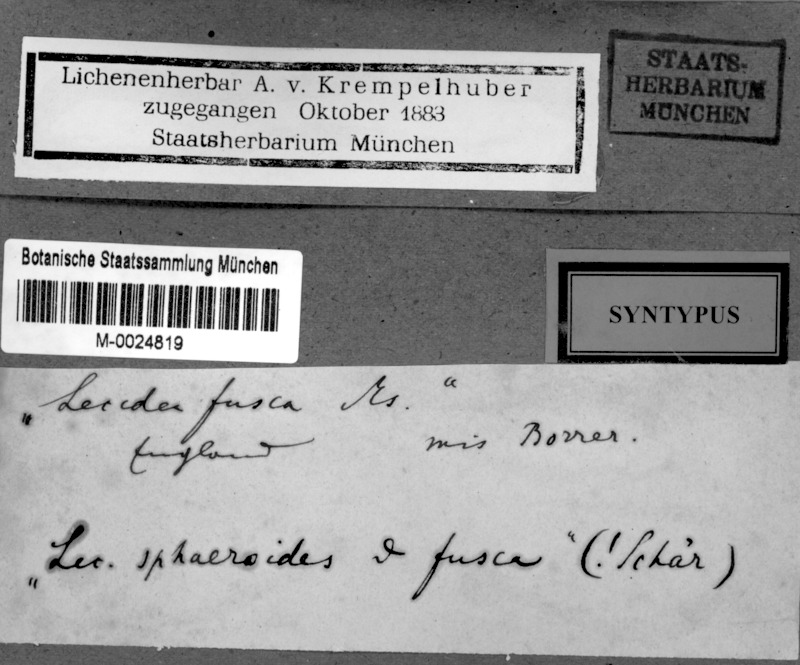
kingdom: Fungi
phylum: Ascomycota
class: Lecanoromycetes
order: Lecideales
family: Lecideaceae
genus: Bryobilimbia
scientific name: Bryobilimbia hypnorum
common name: Mossy dot lichen
